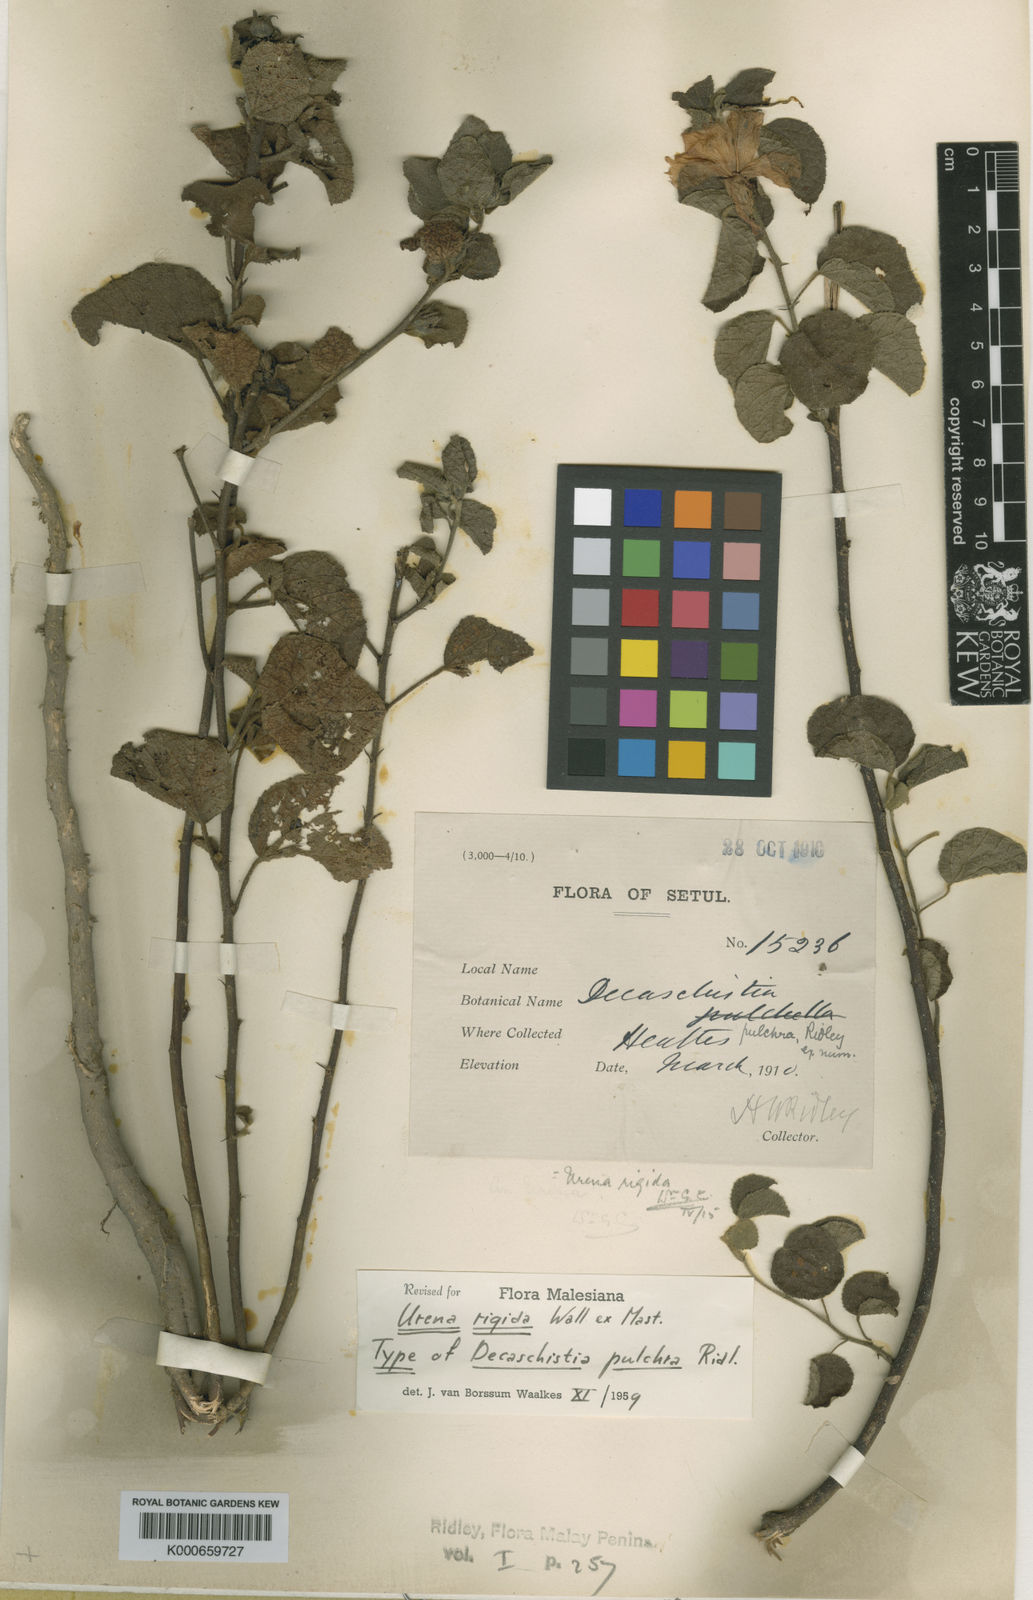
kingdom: Plantae
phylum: Tracheophyta
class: Magnoliopsida
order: Malvales
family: Malvaceae
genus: Urena
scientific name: Urena repanda
